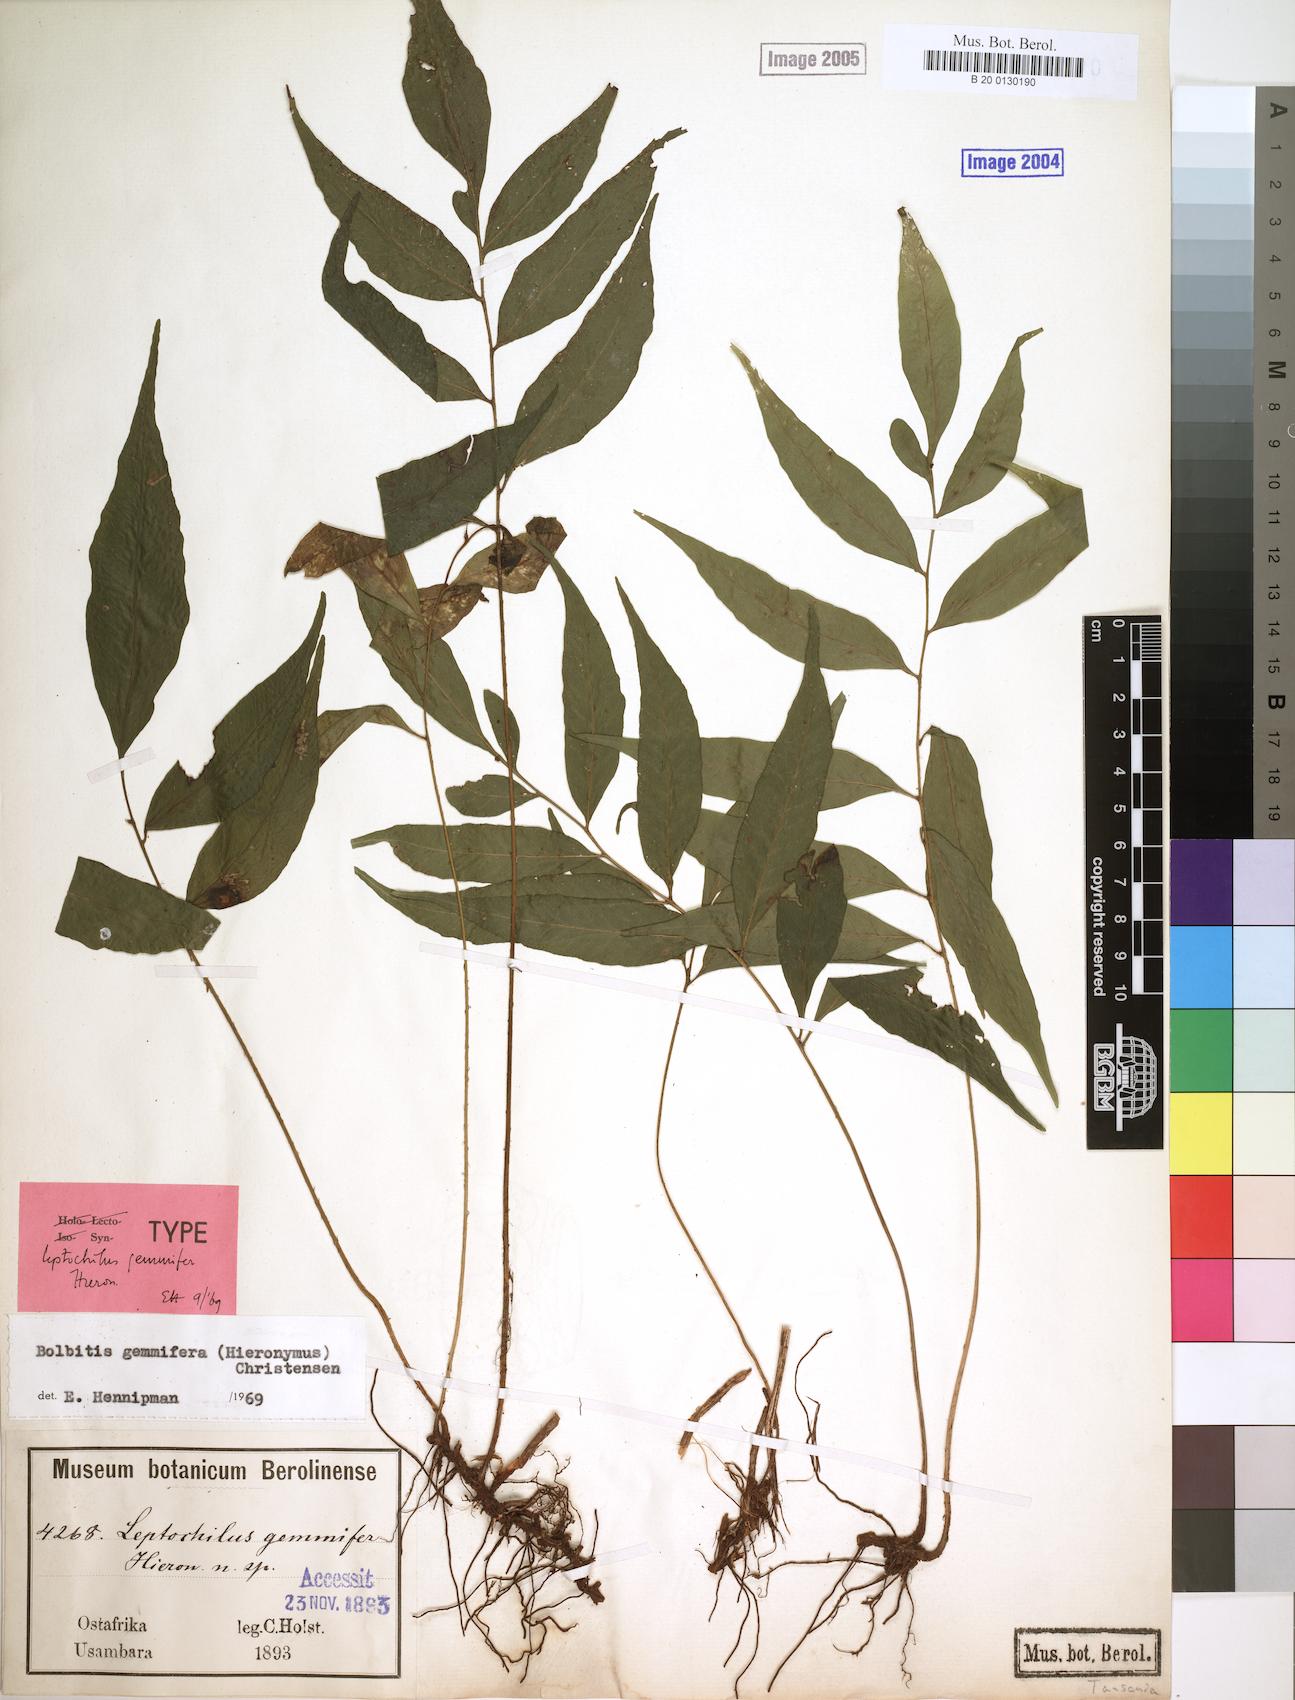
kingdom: Plantae
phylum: Tracheophyta
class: Polypodiopsida
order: Polypodiales
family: Dryopteridaceae
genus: Bolbitis
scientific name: Bolbitis gemmifer
